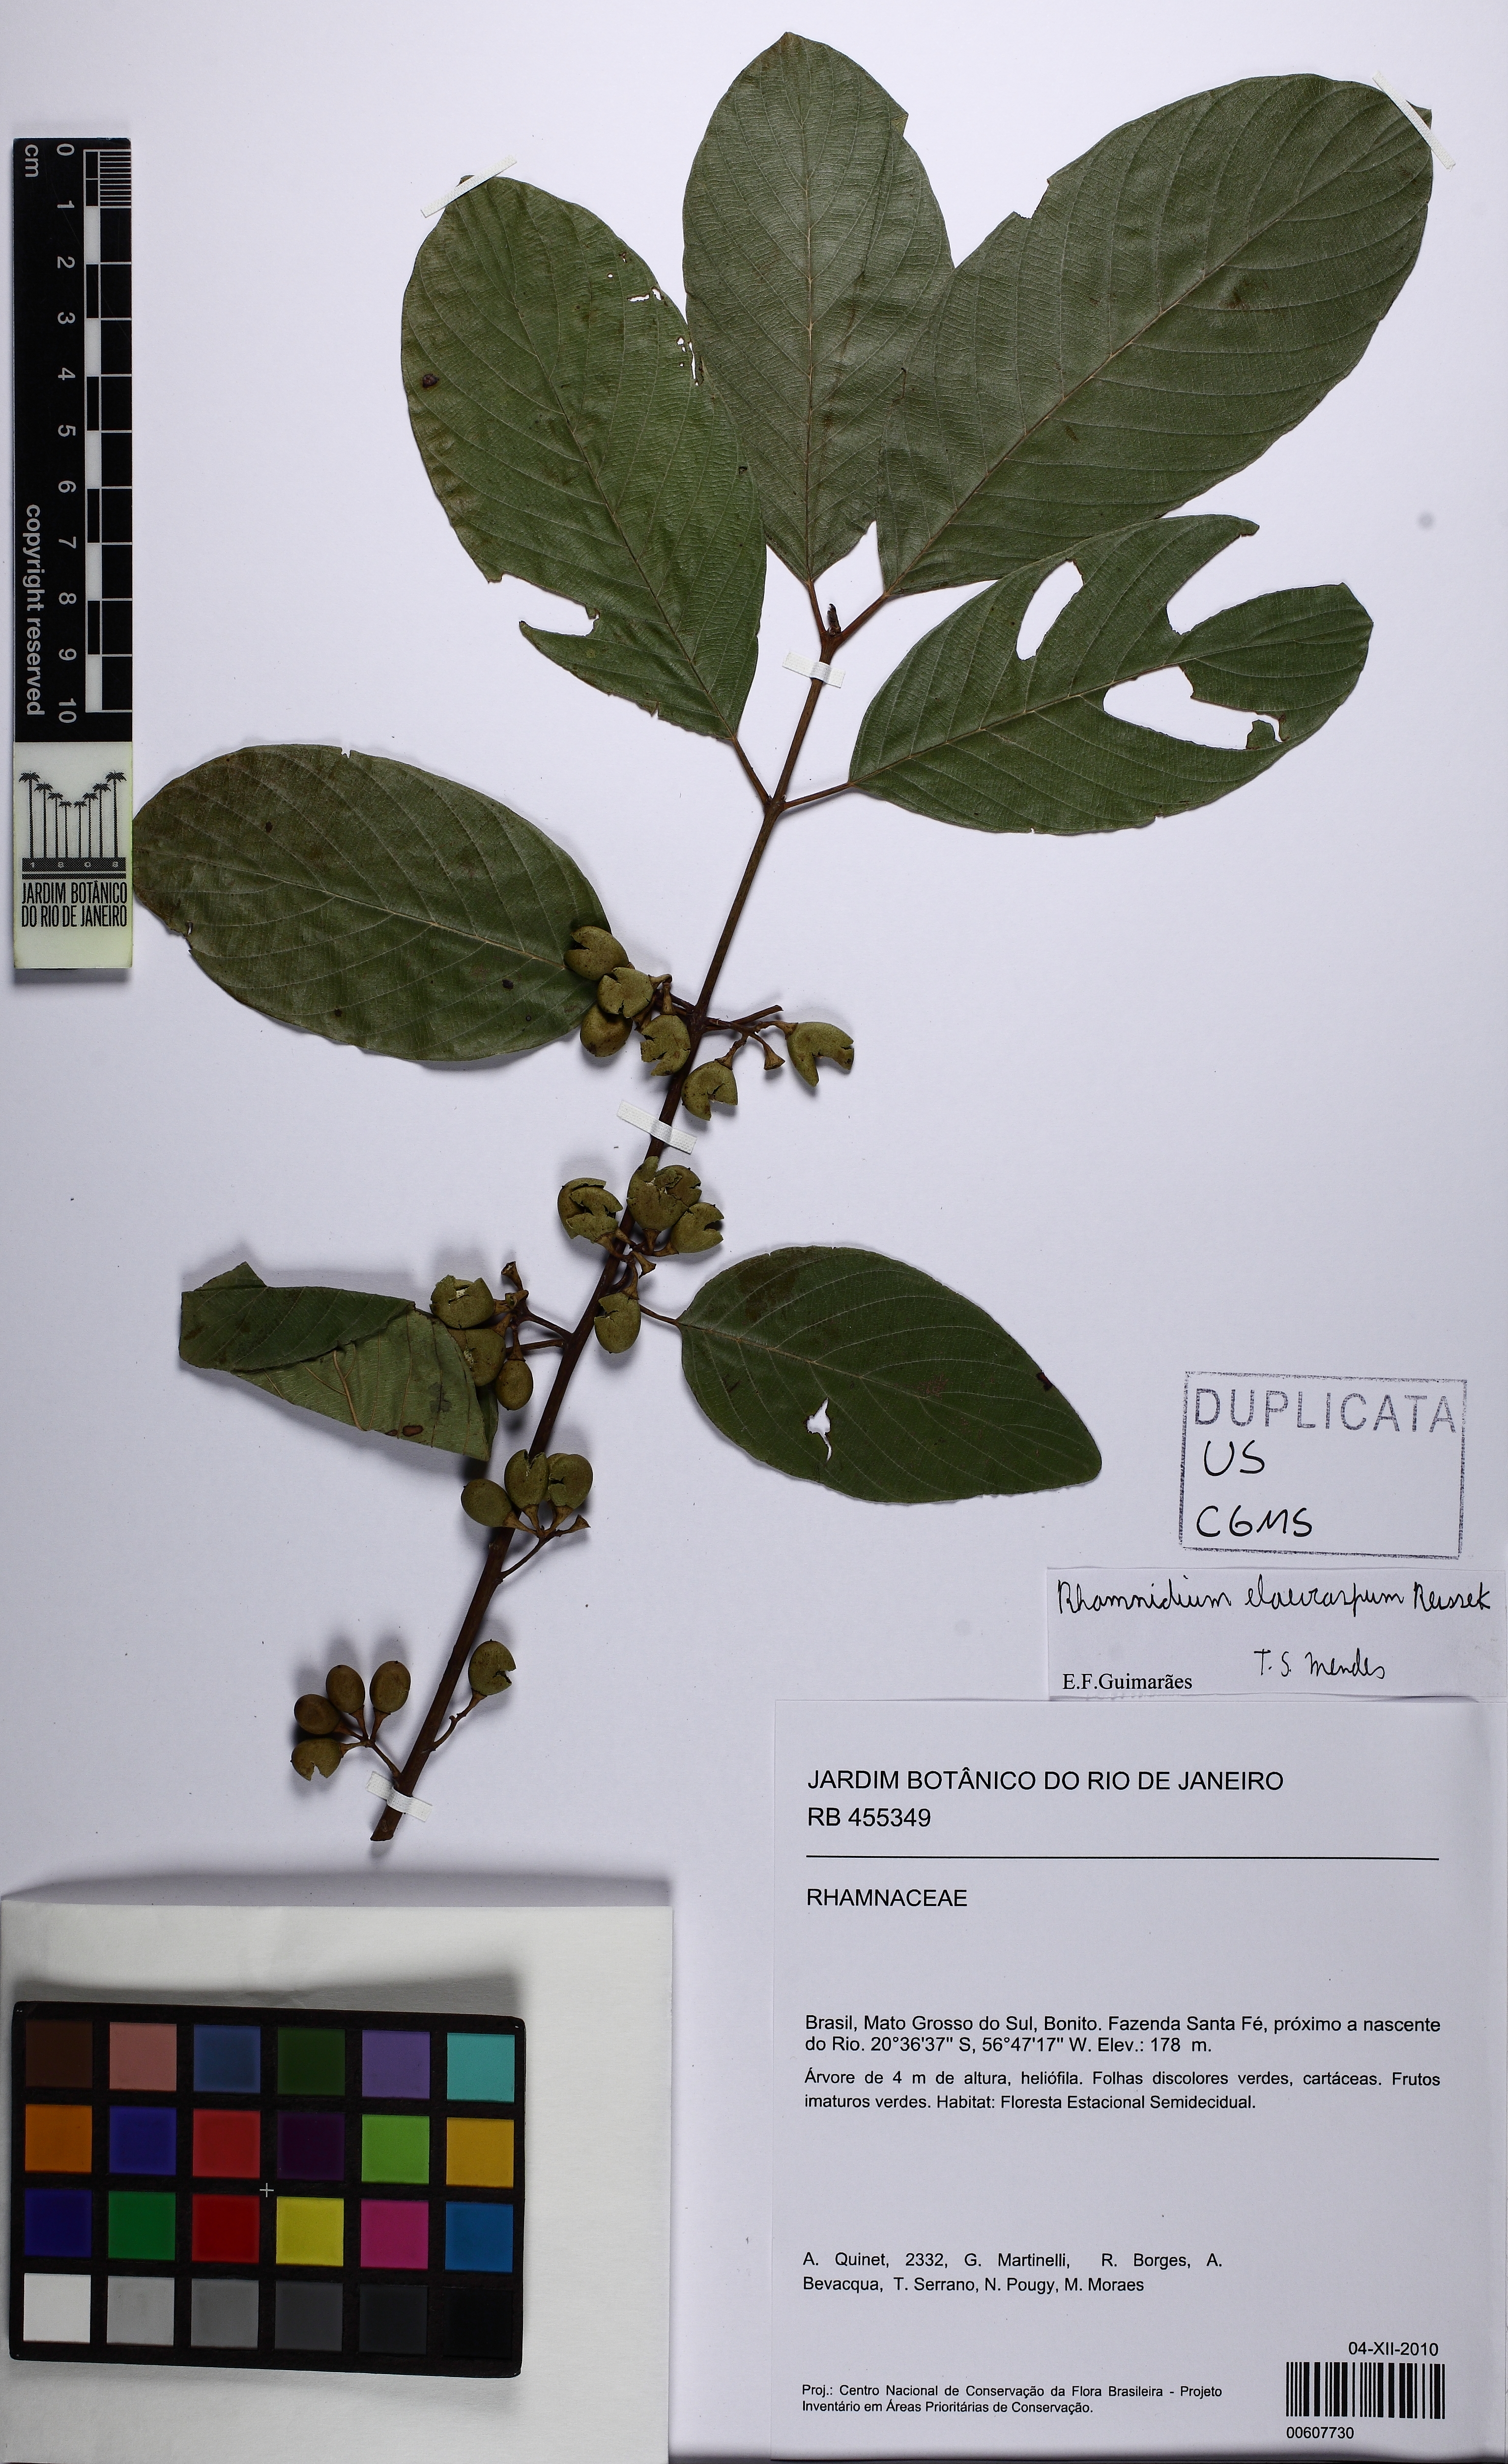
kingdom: Plantae
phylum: Tracheophyta
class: Magnoliopsida
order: Rosales
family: Rhamnaceae
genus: Rhamnidium
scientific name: Rhamnidium elaeocarpum
